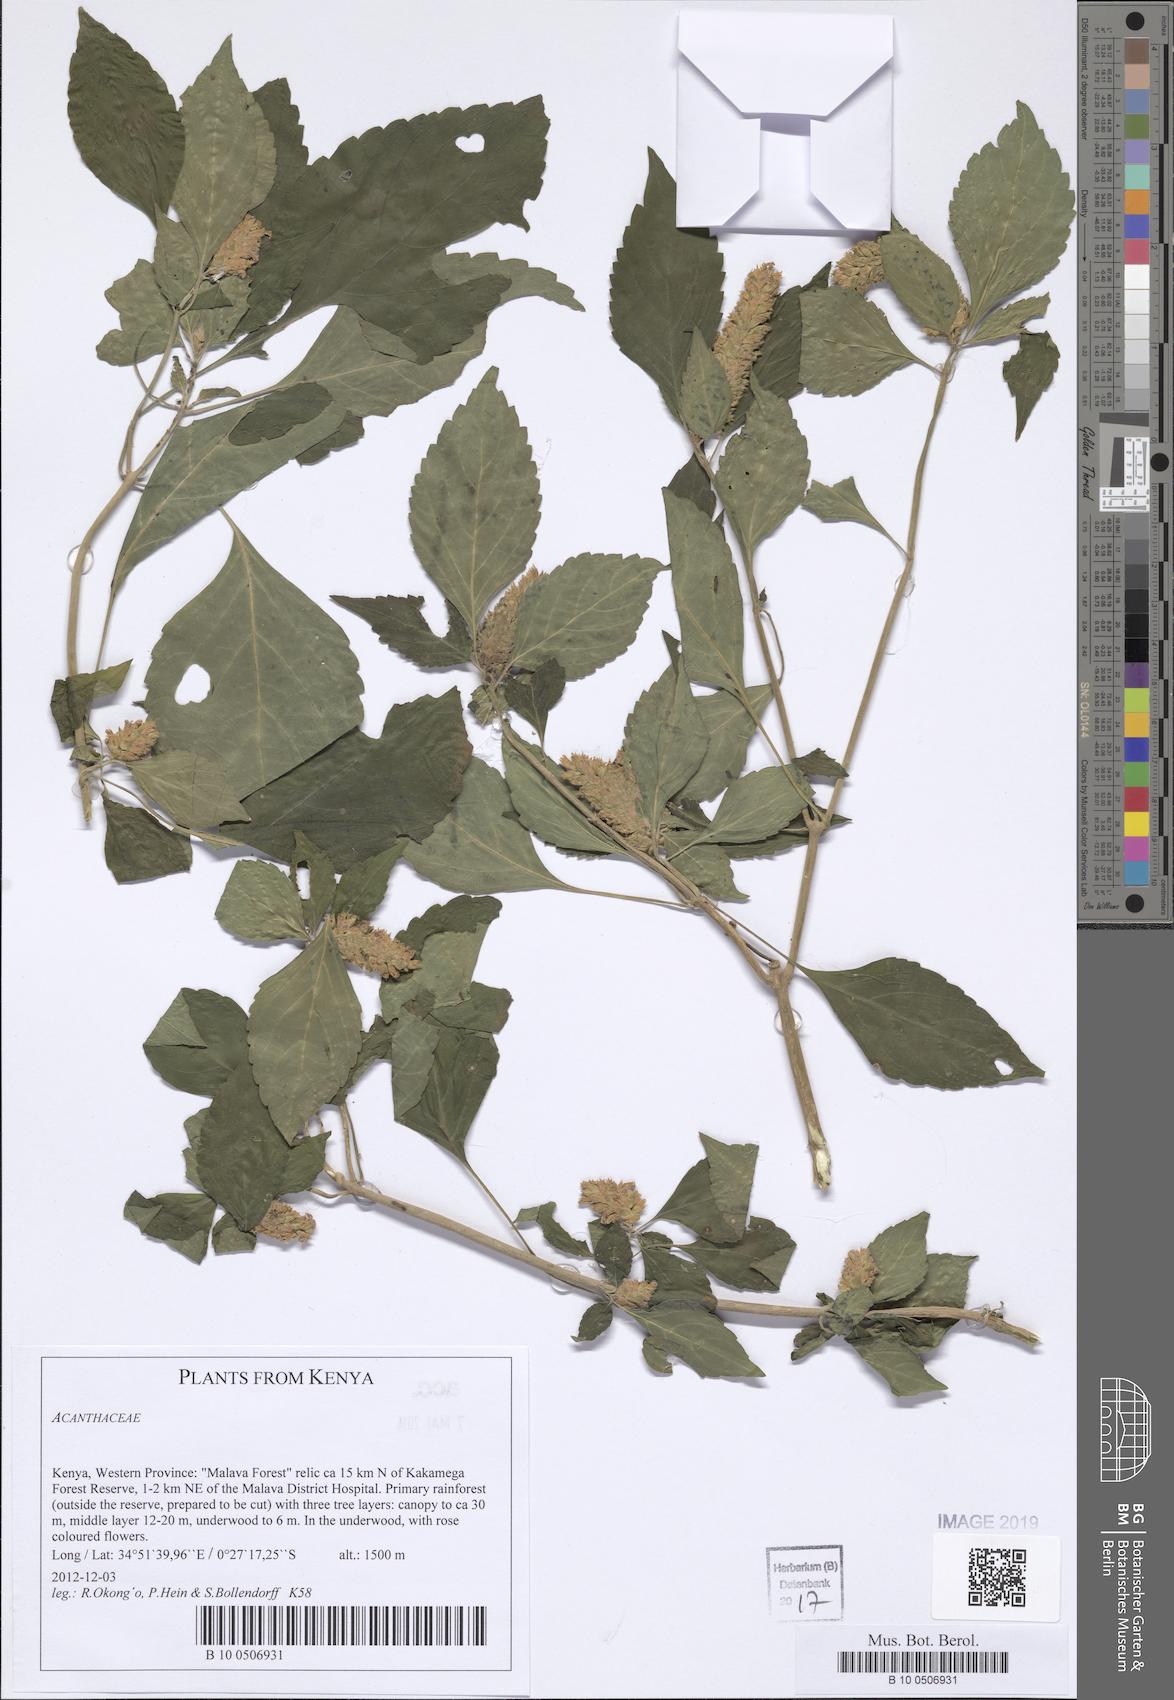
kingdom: Plantae
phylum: Tracheophyta
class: Magnoliopsida
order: Lamiales
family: Acanthaceae
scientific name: Acanthaceae
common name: Acanthaceae
